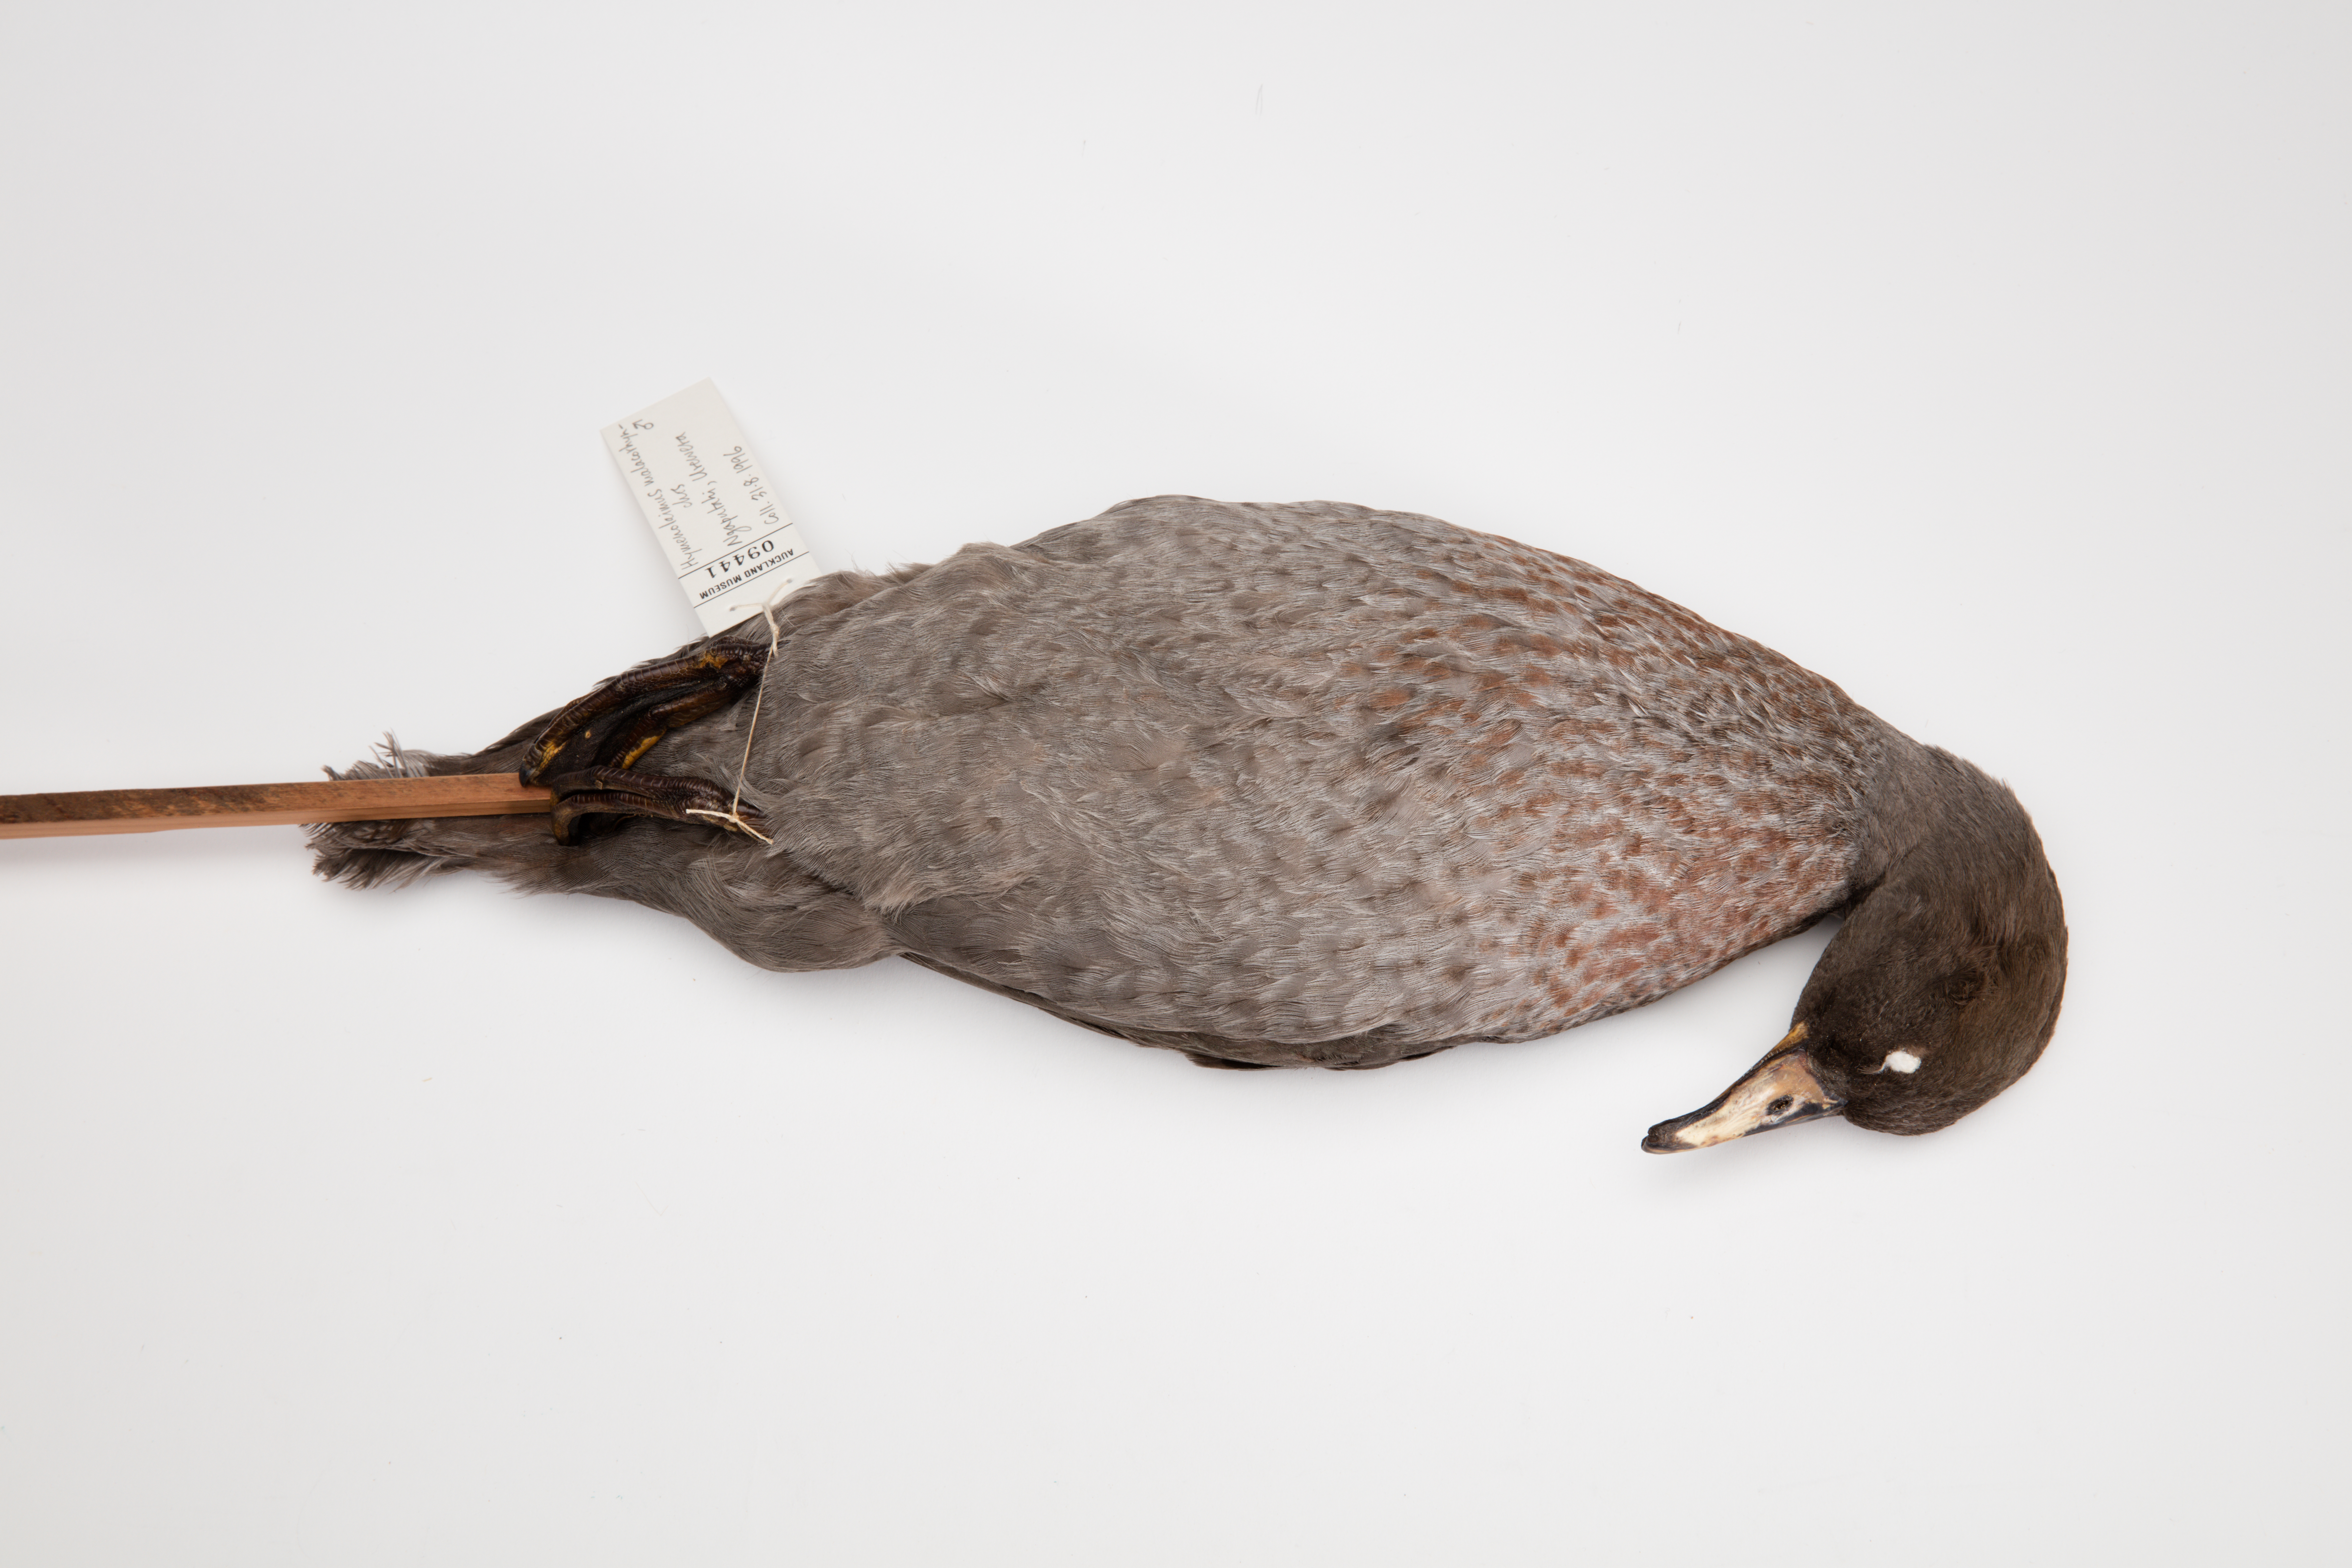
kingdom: Animalia
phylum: Chordata
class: Aves
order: Anseriformes
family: Anatidae
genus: Hymenolaimus
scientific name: Hymenolaimus malacorhynchos
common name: Blue duck
